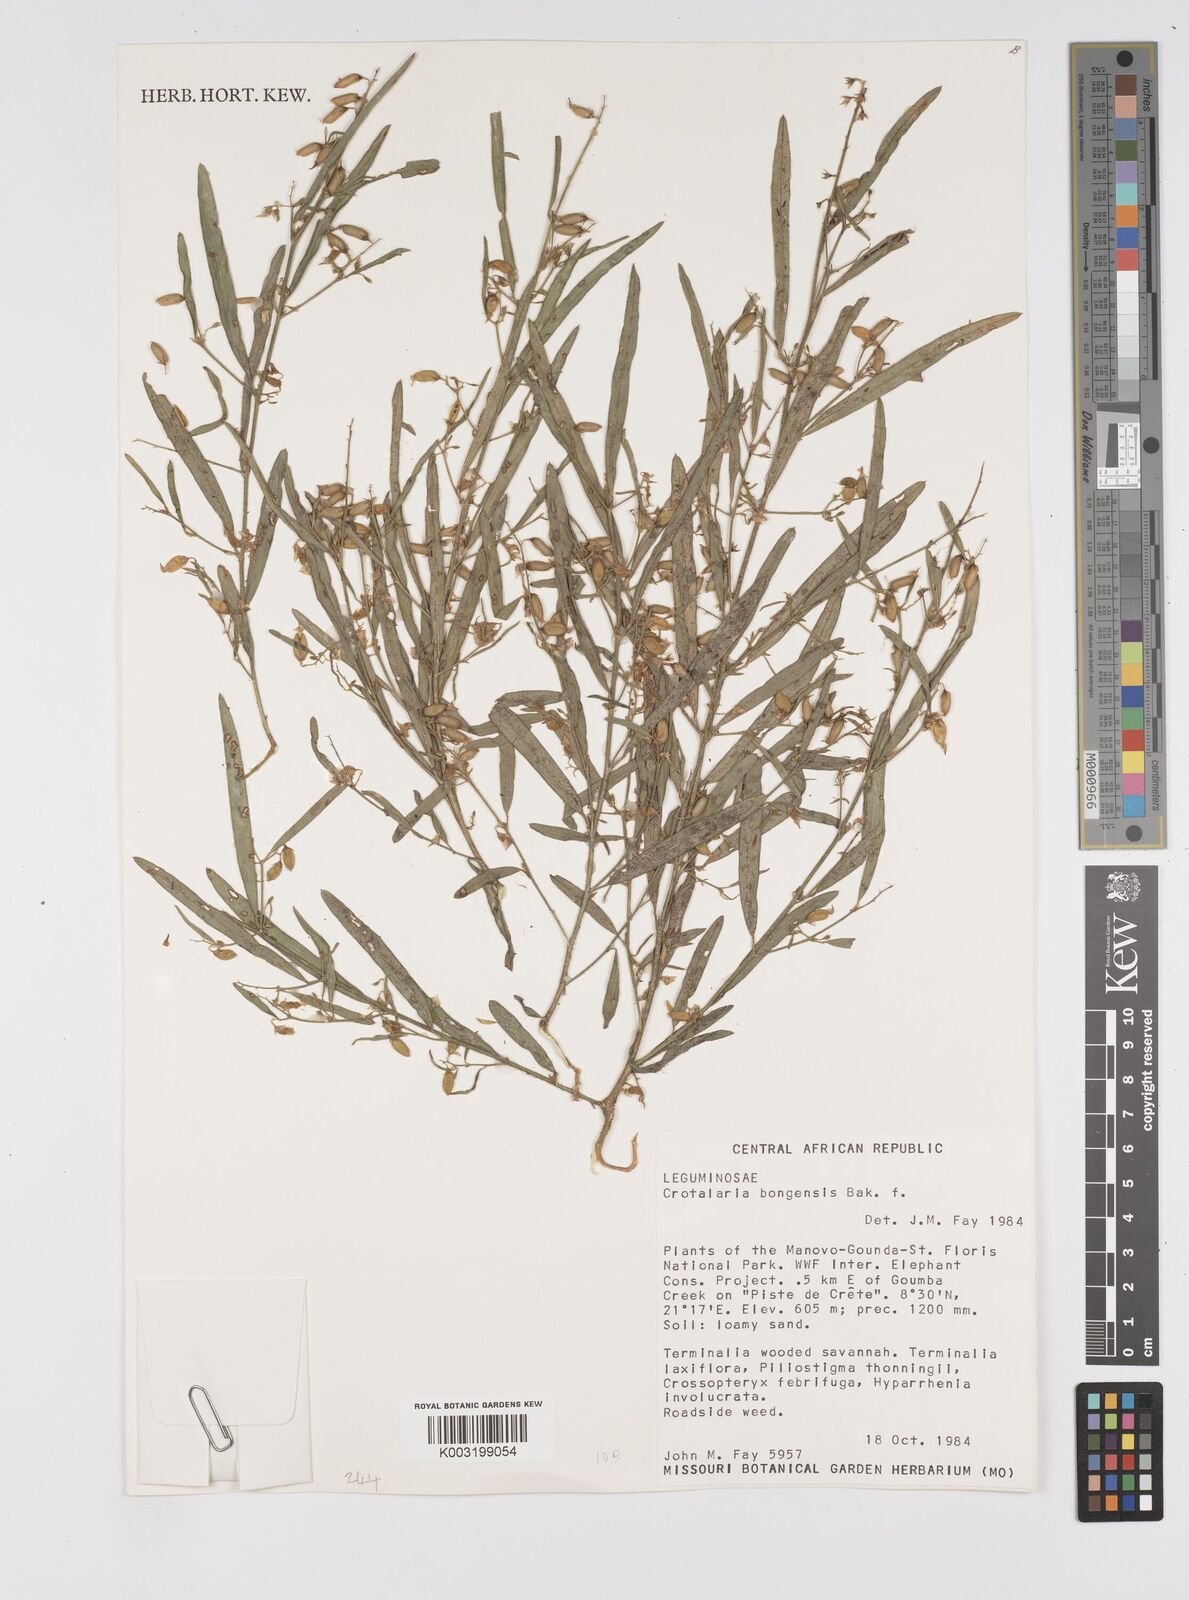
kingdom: Plantae
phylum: Tracheophyta
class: Magnoliopsida
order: Fabales
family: Fabaceae
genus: Crotalaria
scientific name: Crotalaria bongensis
